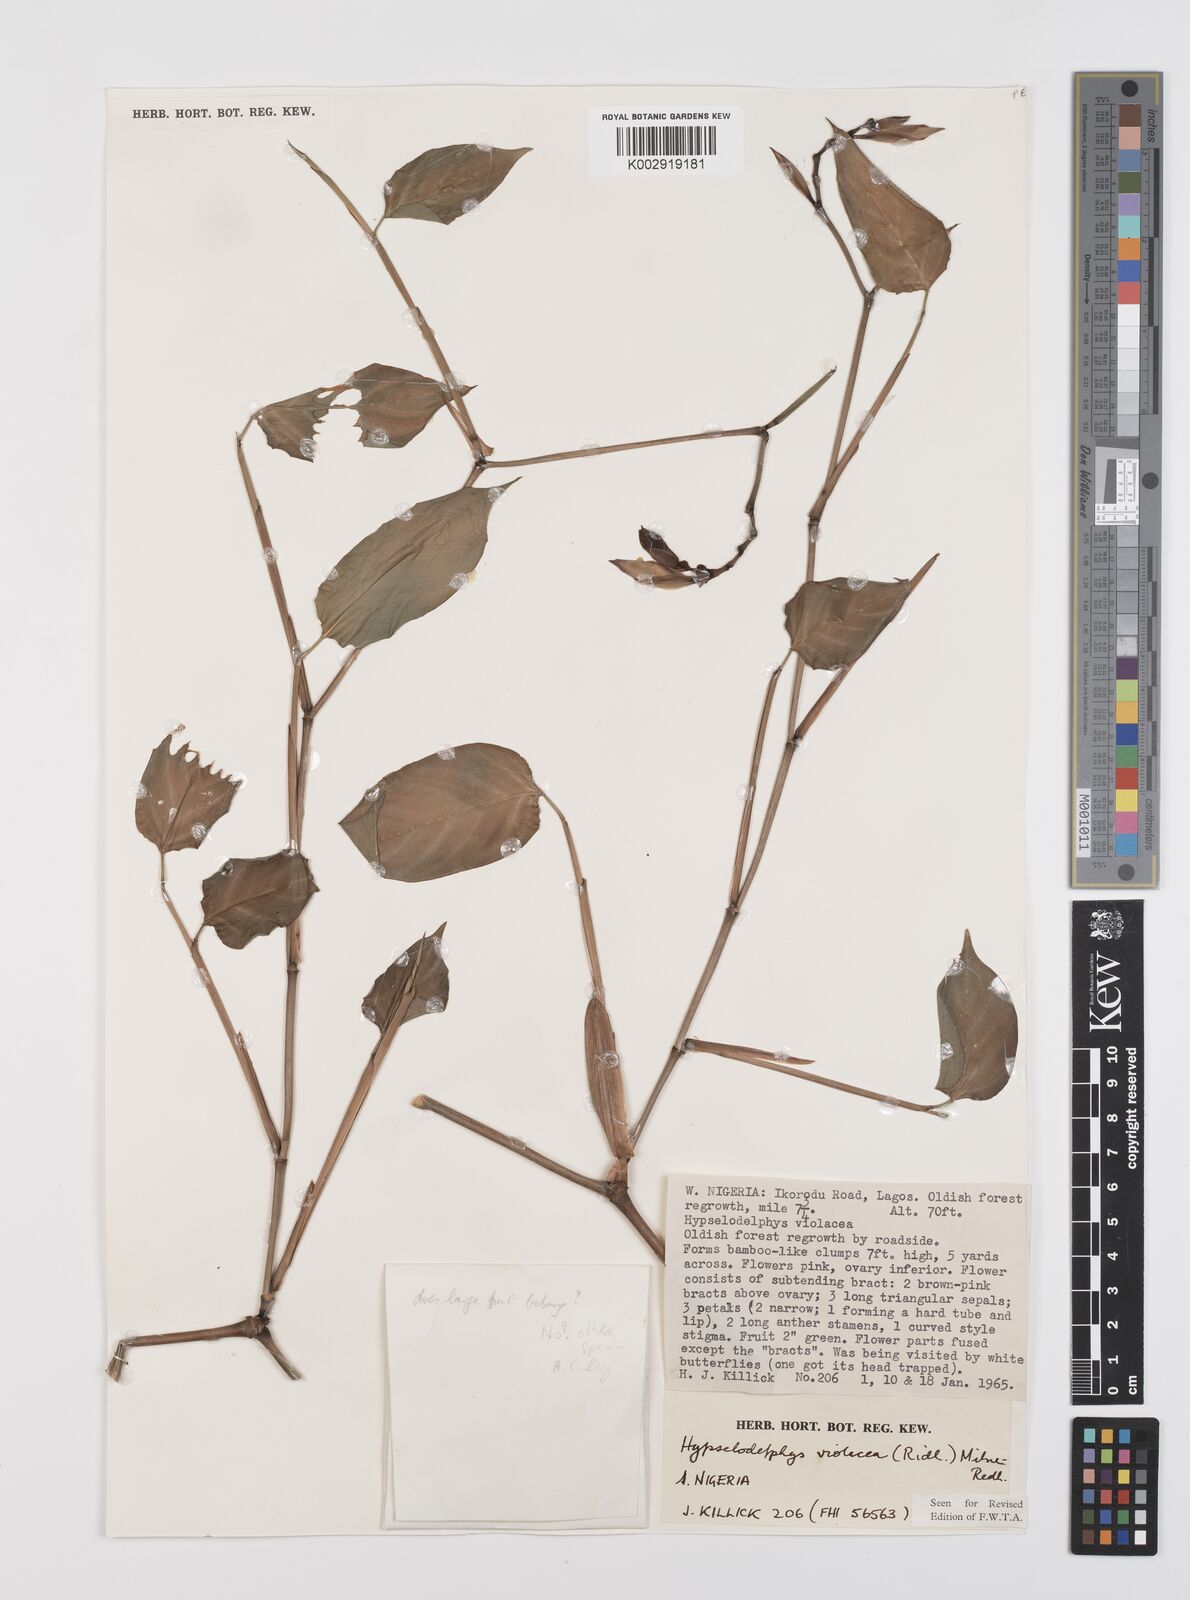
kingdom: Plantae
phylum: Tracheophyta
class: Liliopsida
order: Zingiberales
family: Marantaceae
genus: Hypselodelphys
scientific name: Hypselodelphys violacea
